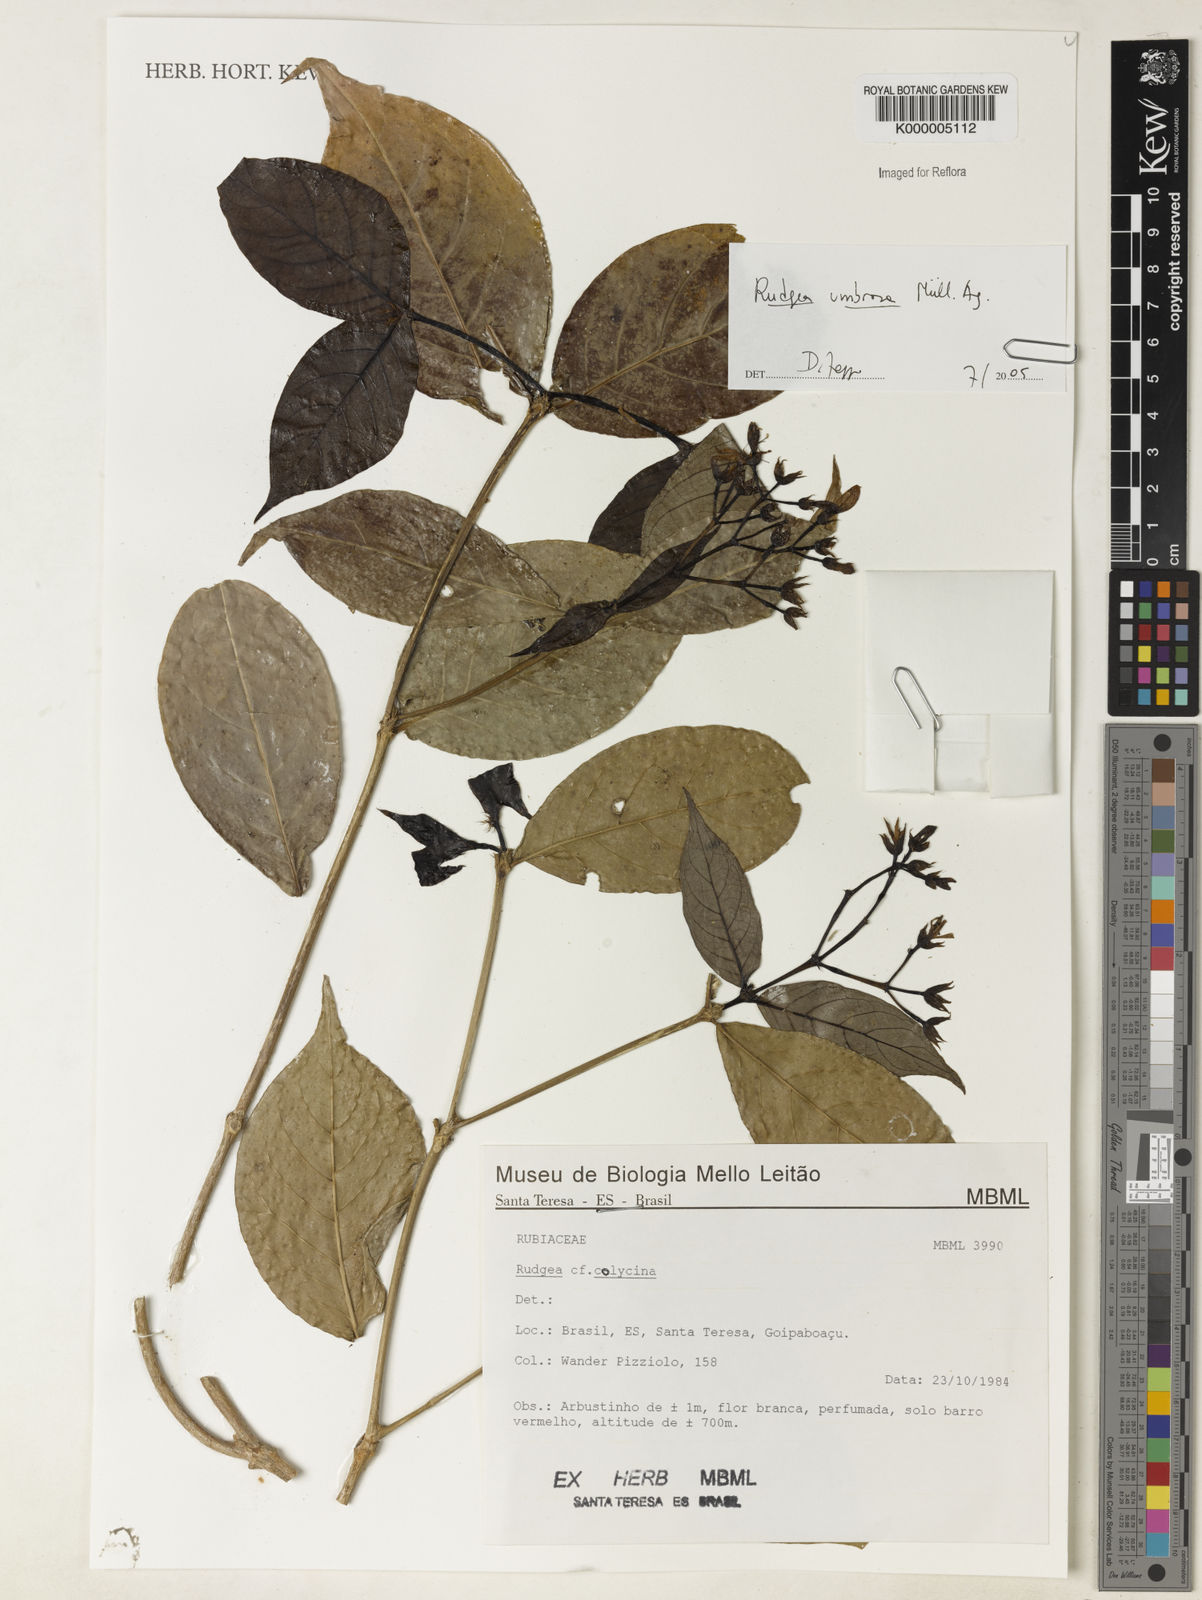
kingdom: Plantae
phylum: Tracheophyta
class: Magnoliopsida
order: Gentianales
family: Rubiaceae
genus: Rudgea
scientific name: Rudgea umbrosa
